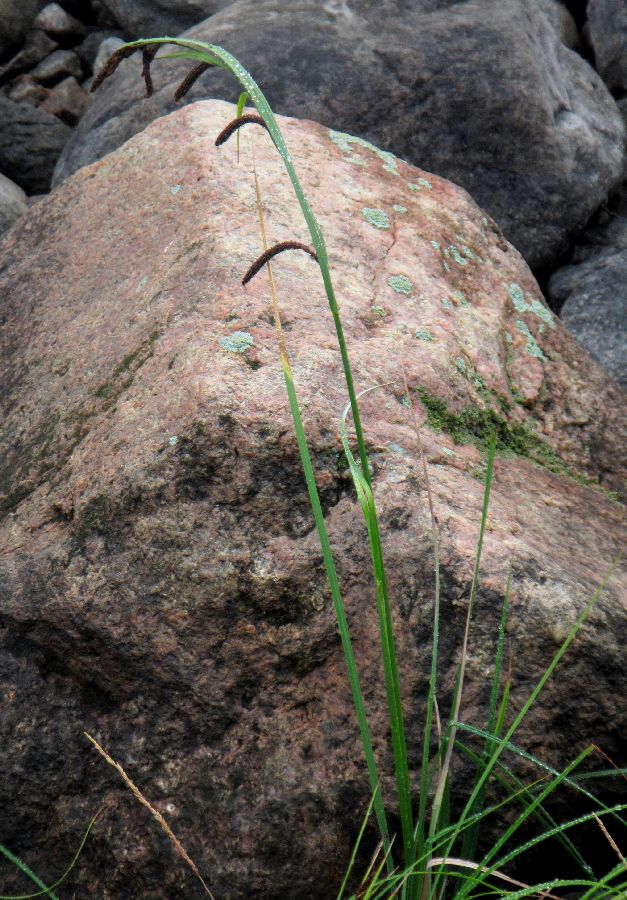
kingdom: Plantae
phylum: Tracheophyta
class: Liliopsida
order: Poales
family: Cyperaceae
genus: Carex
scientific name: Carex acuta
